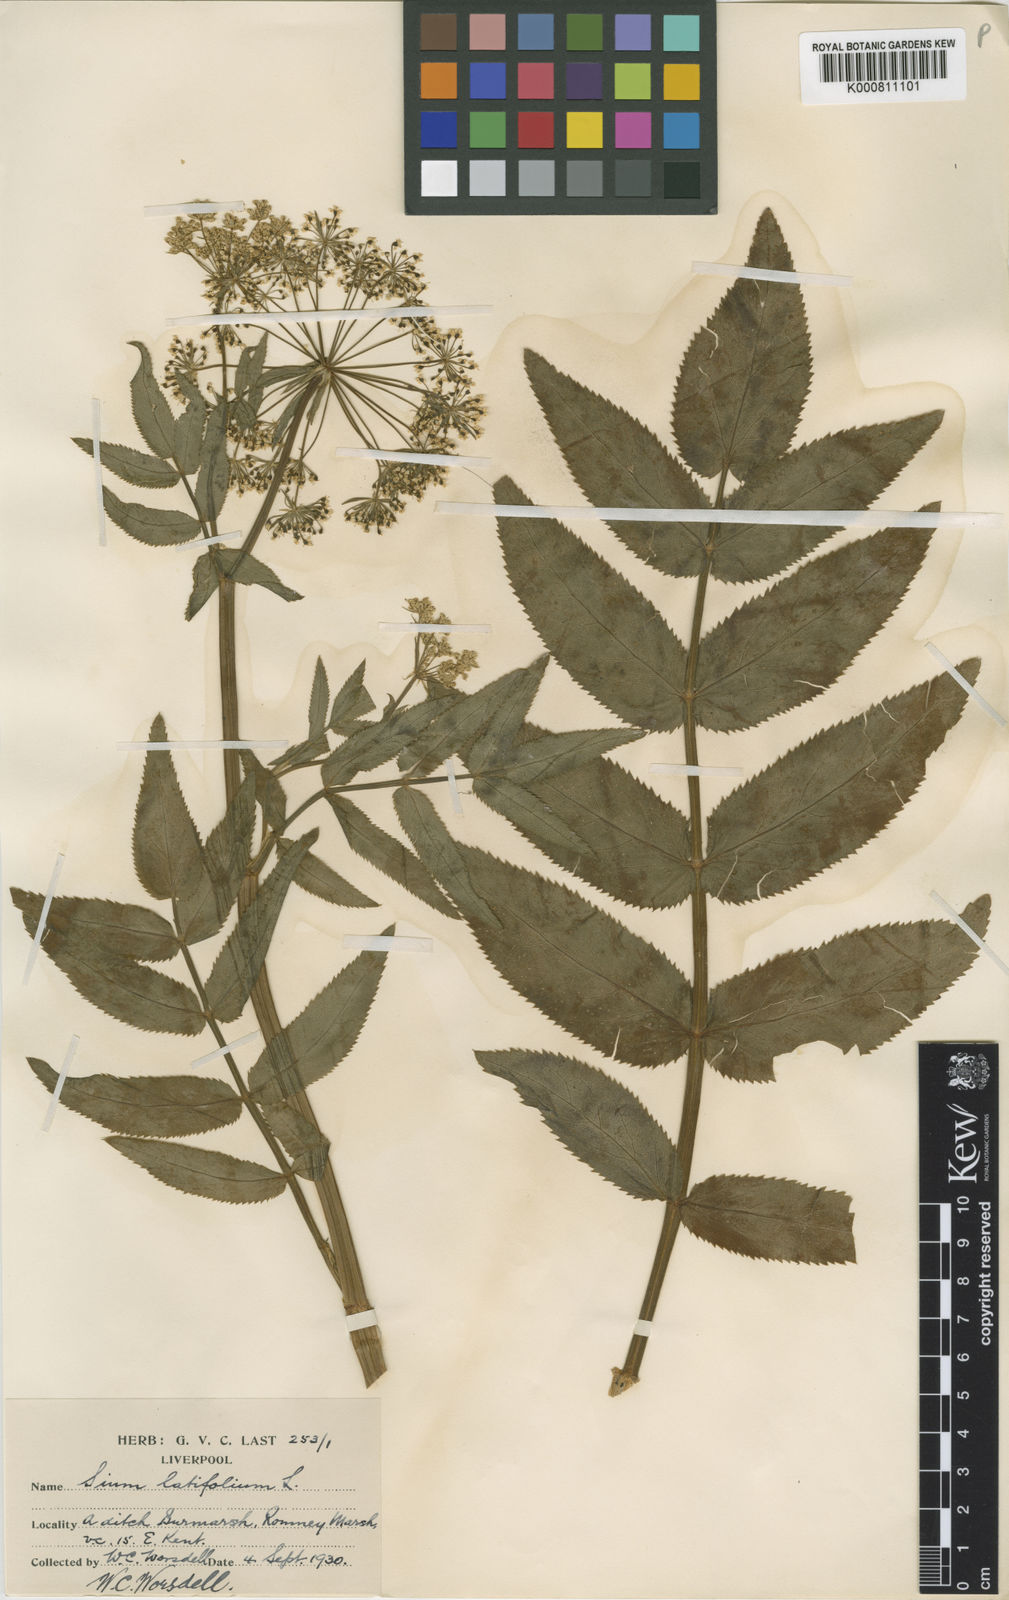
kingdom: Plantae
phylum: Tracheophyta
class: Magnoliopsida
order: Apiales
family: Apiaceae
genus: Sium
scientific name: Sium latifolium
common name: Greater water-parsnip
